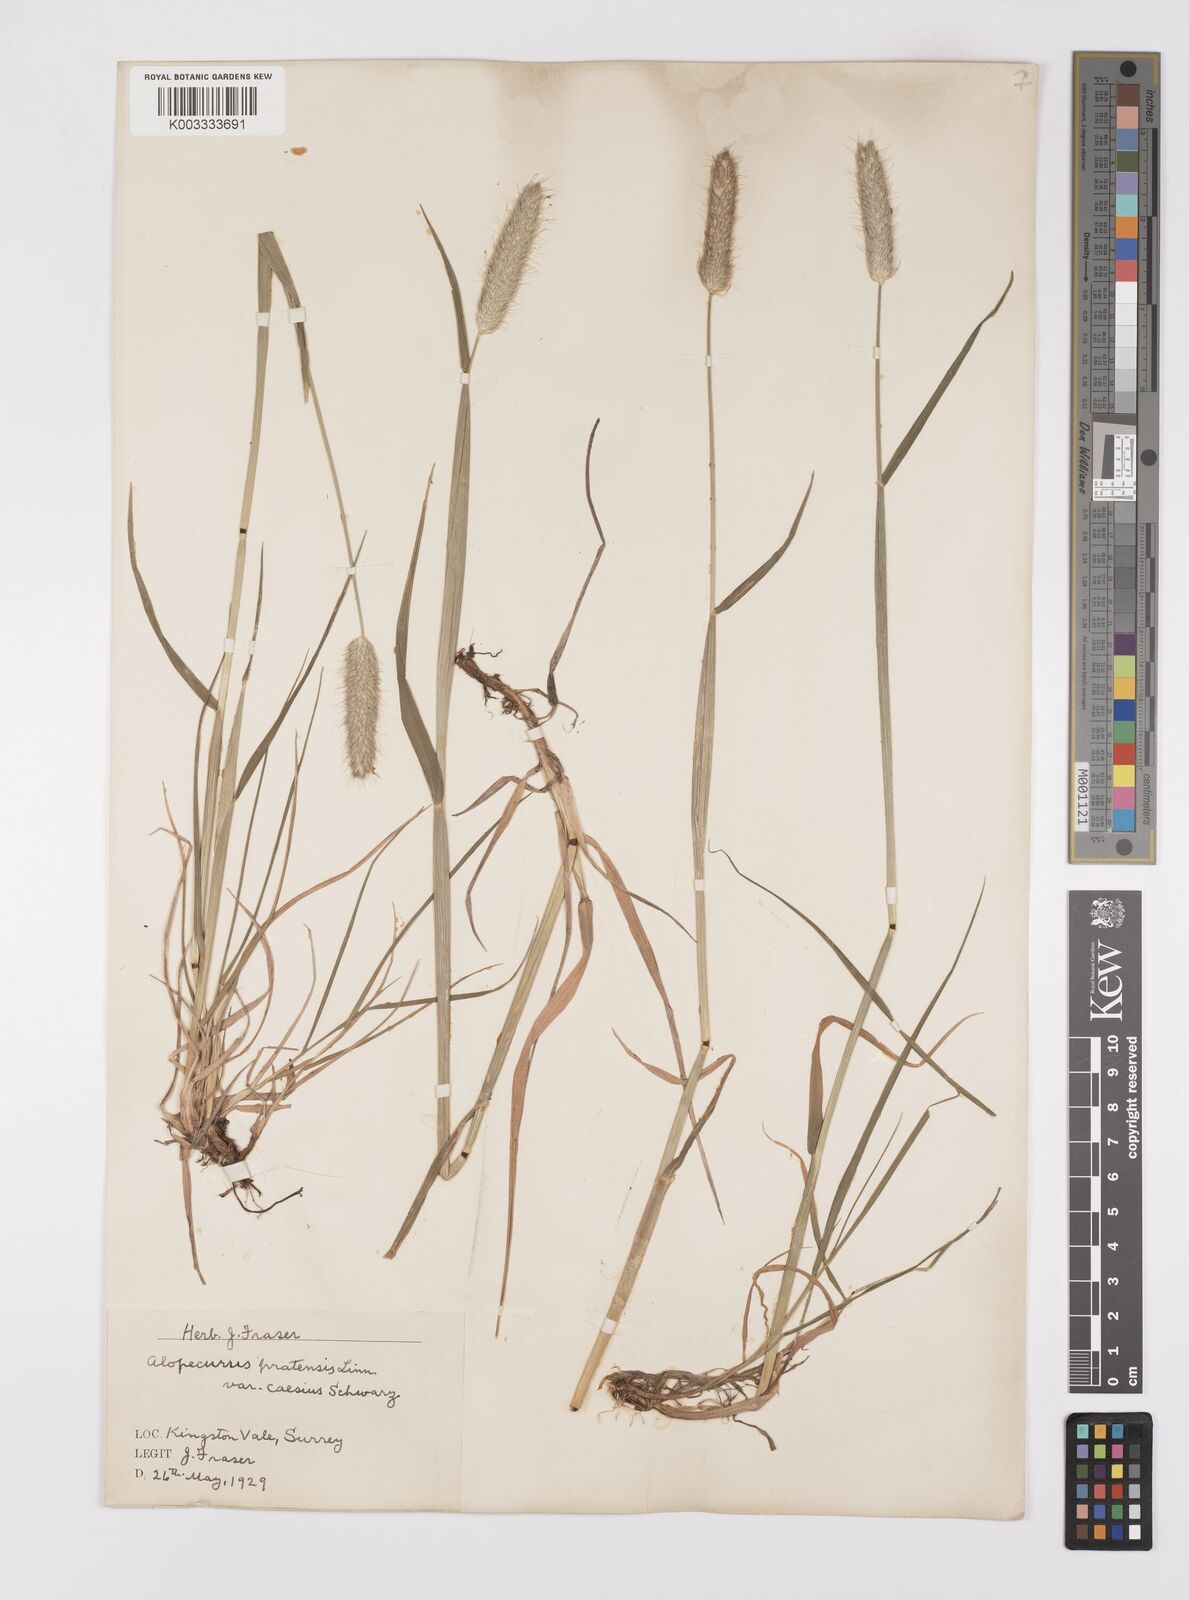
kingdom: Plantae
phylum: Tracheophyta
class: Liliopsida
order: Poales
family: Poaceae
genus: Alopecurus
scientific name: Alopecurus pratensis
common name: Meadow foxtail
